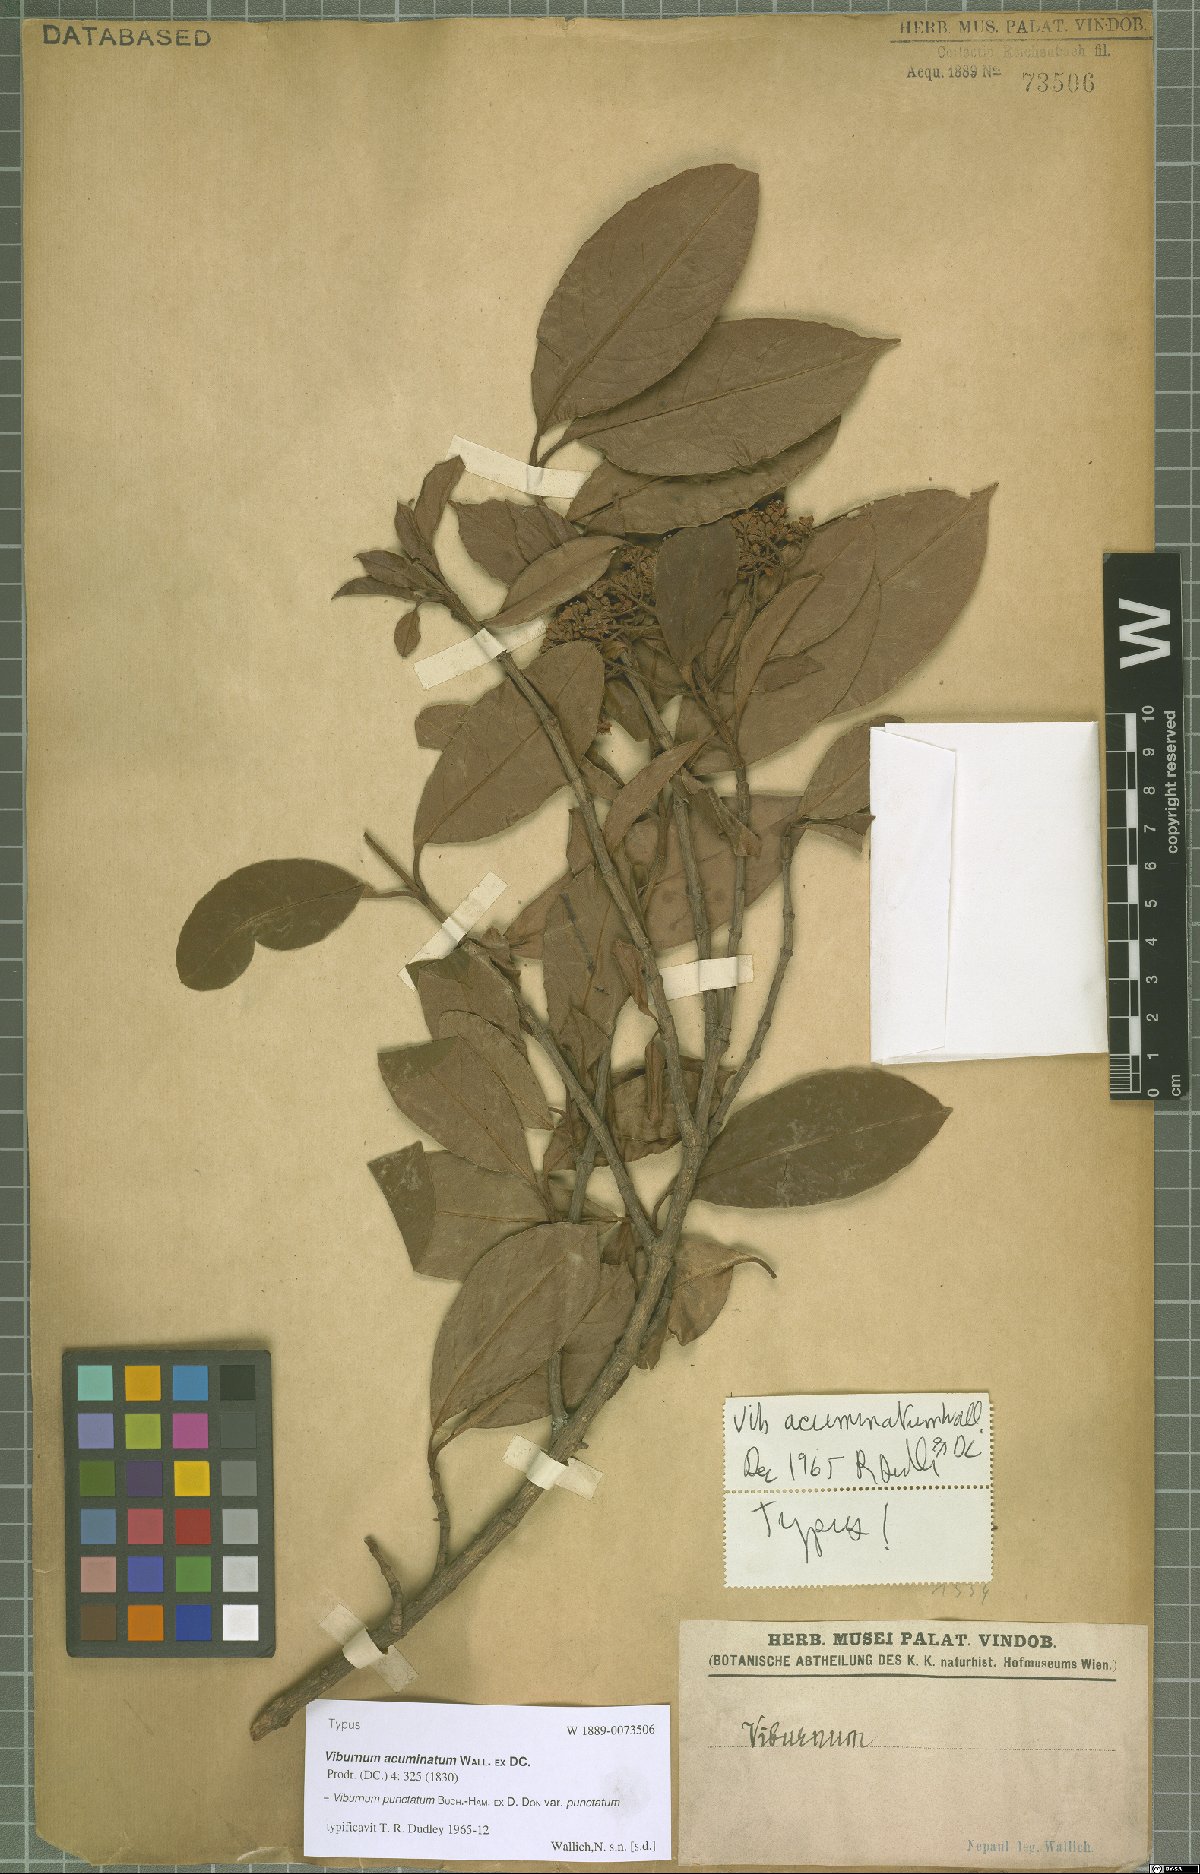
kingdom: Plantae
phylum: Tracheophyta
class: Magnoliopsida
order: Dipsacales
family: Viburnaceae
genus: Viburnum
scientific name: Viburnum punctatum
